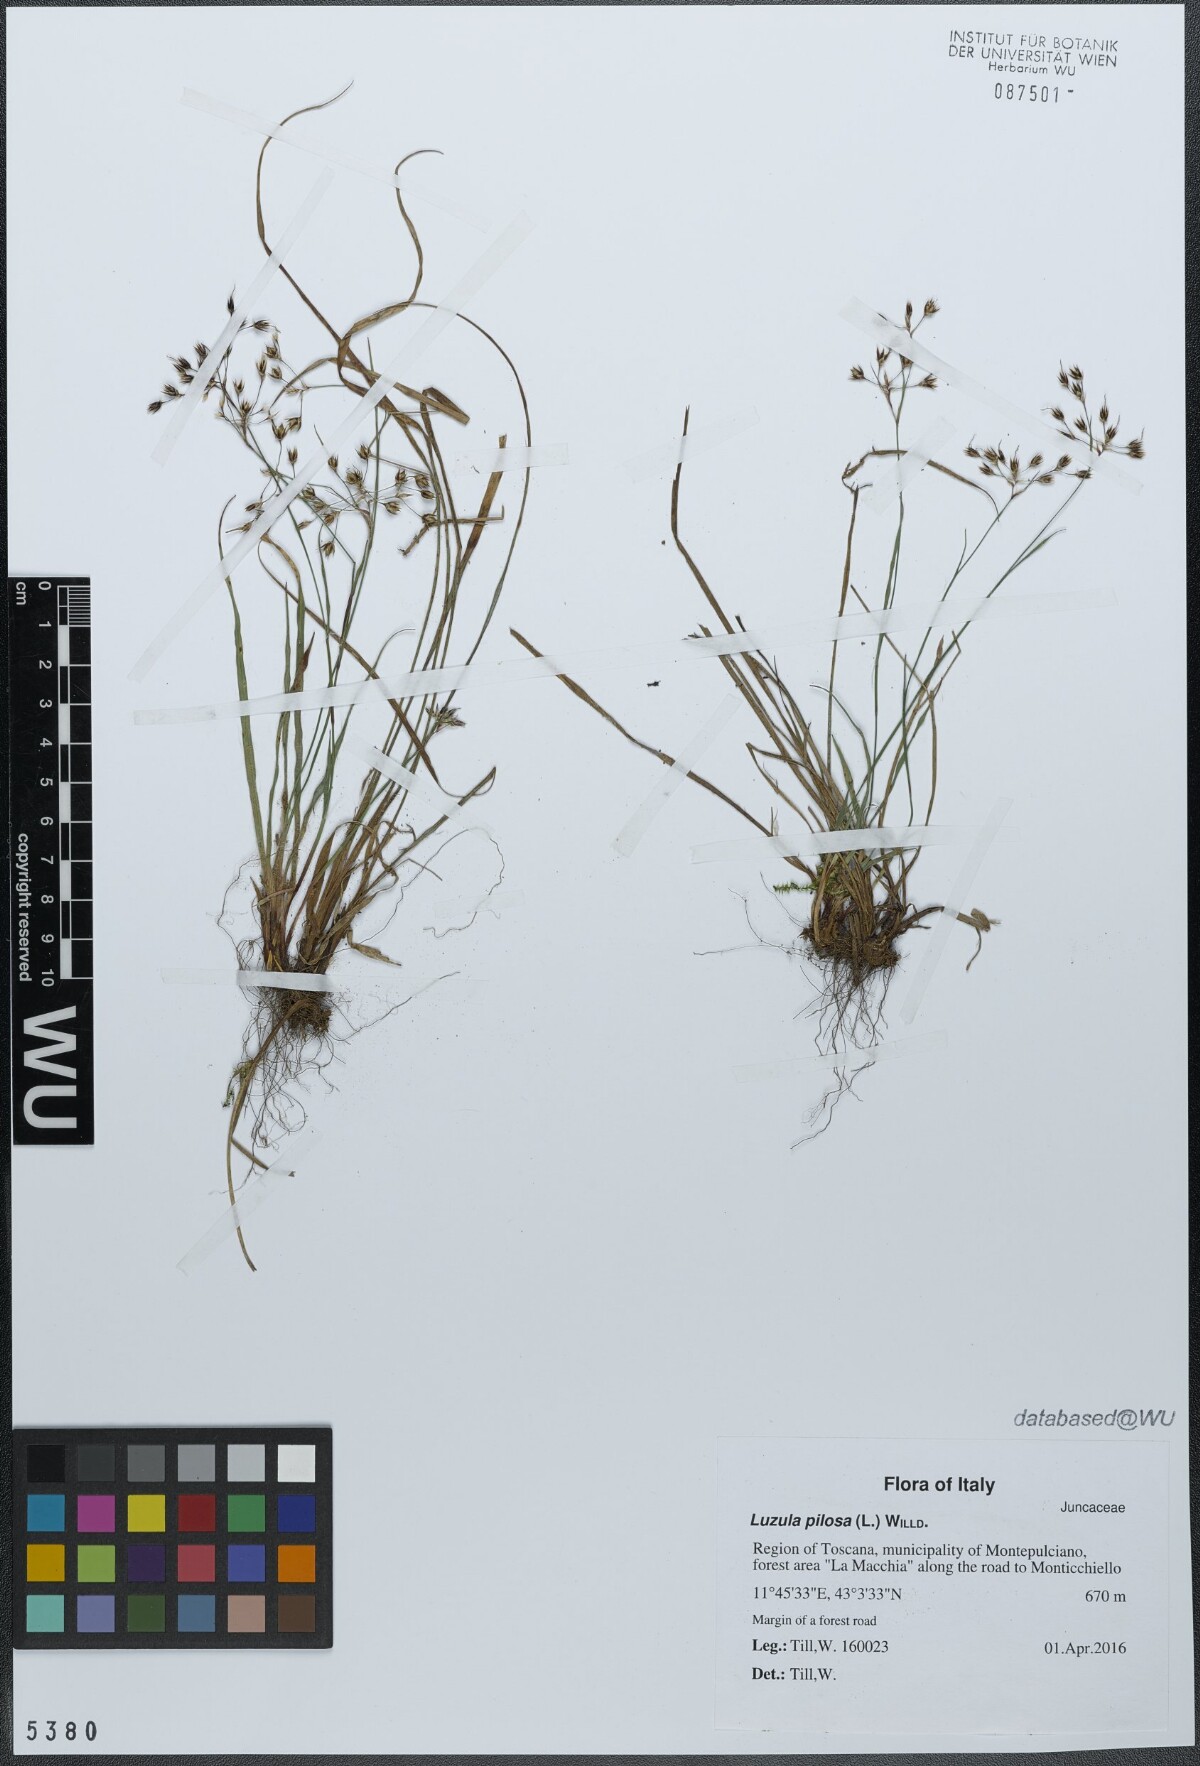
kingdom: Plantae
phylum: Tracheophyta
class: Liliopsida
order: Poales
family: Juncaceae
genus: Luzula
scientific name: Luzula pilosa
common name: Hairy wood-rush
